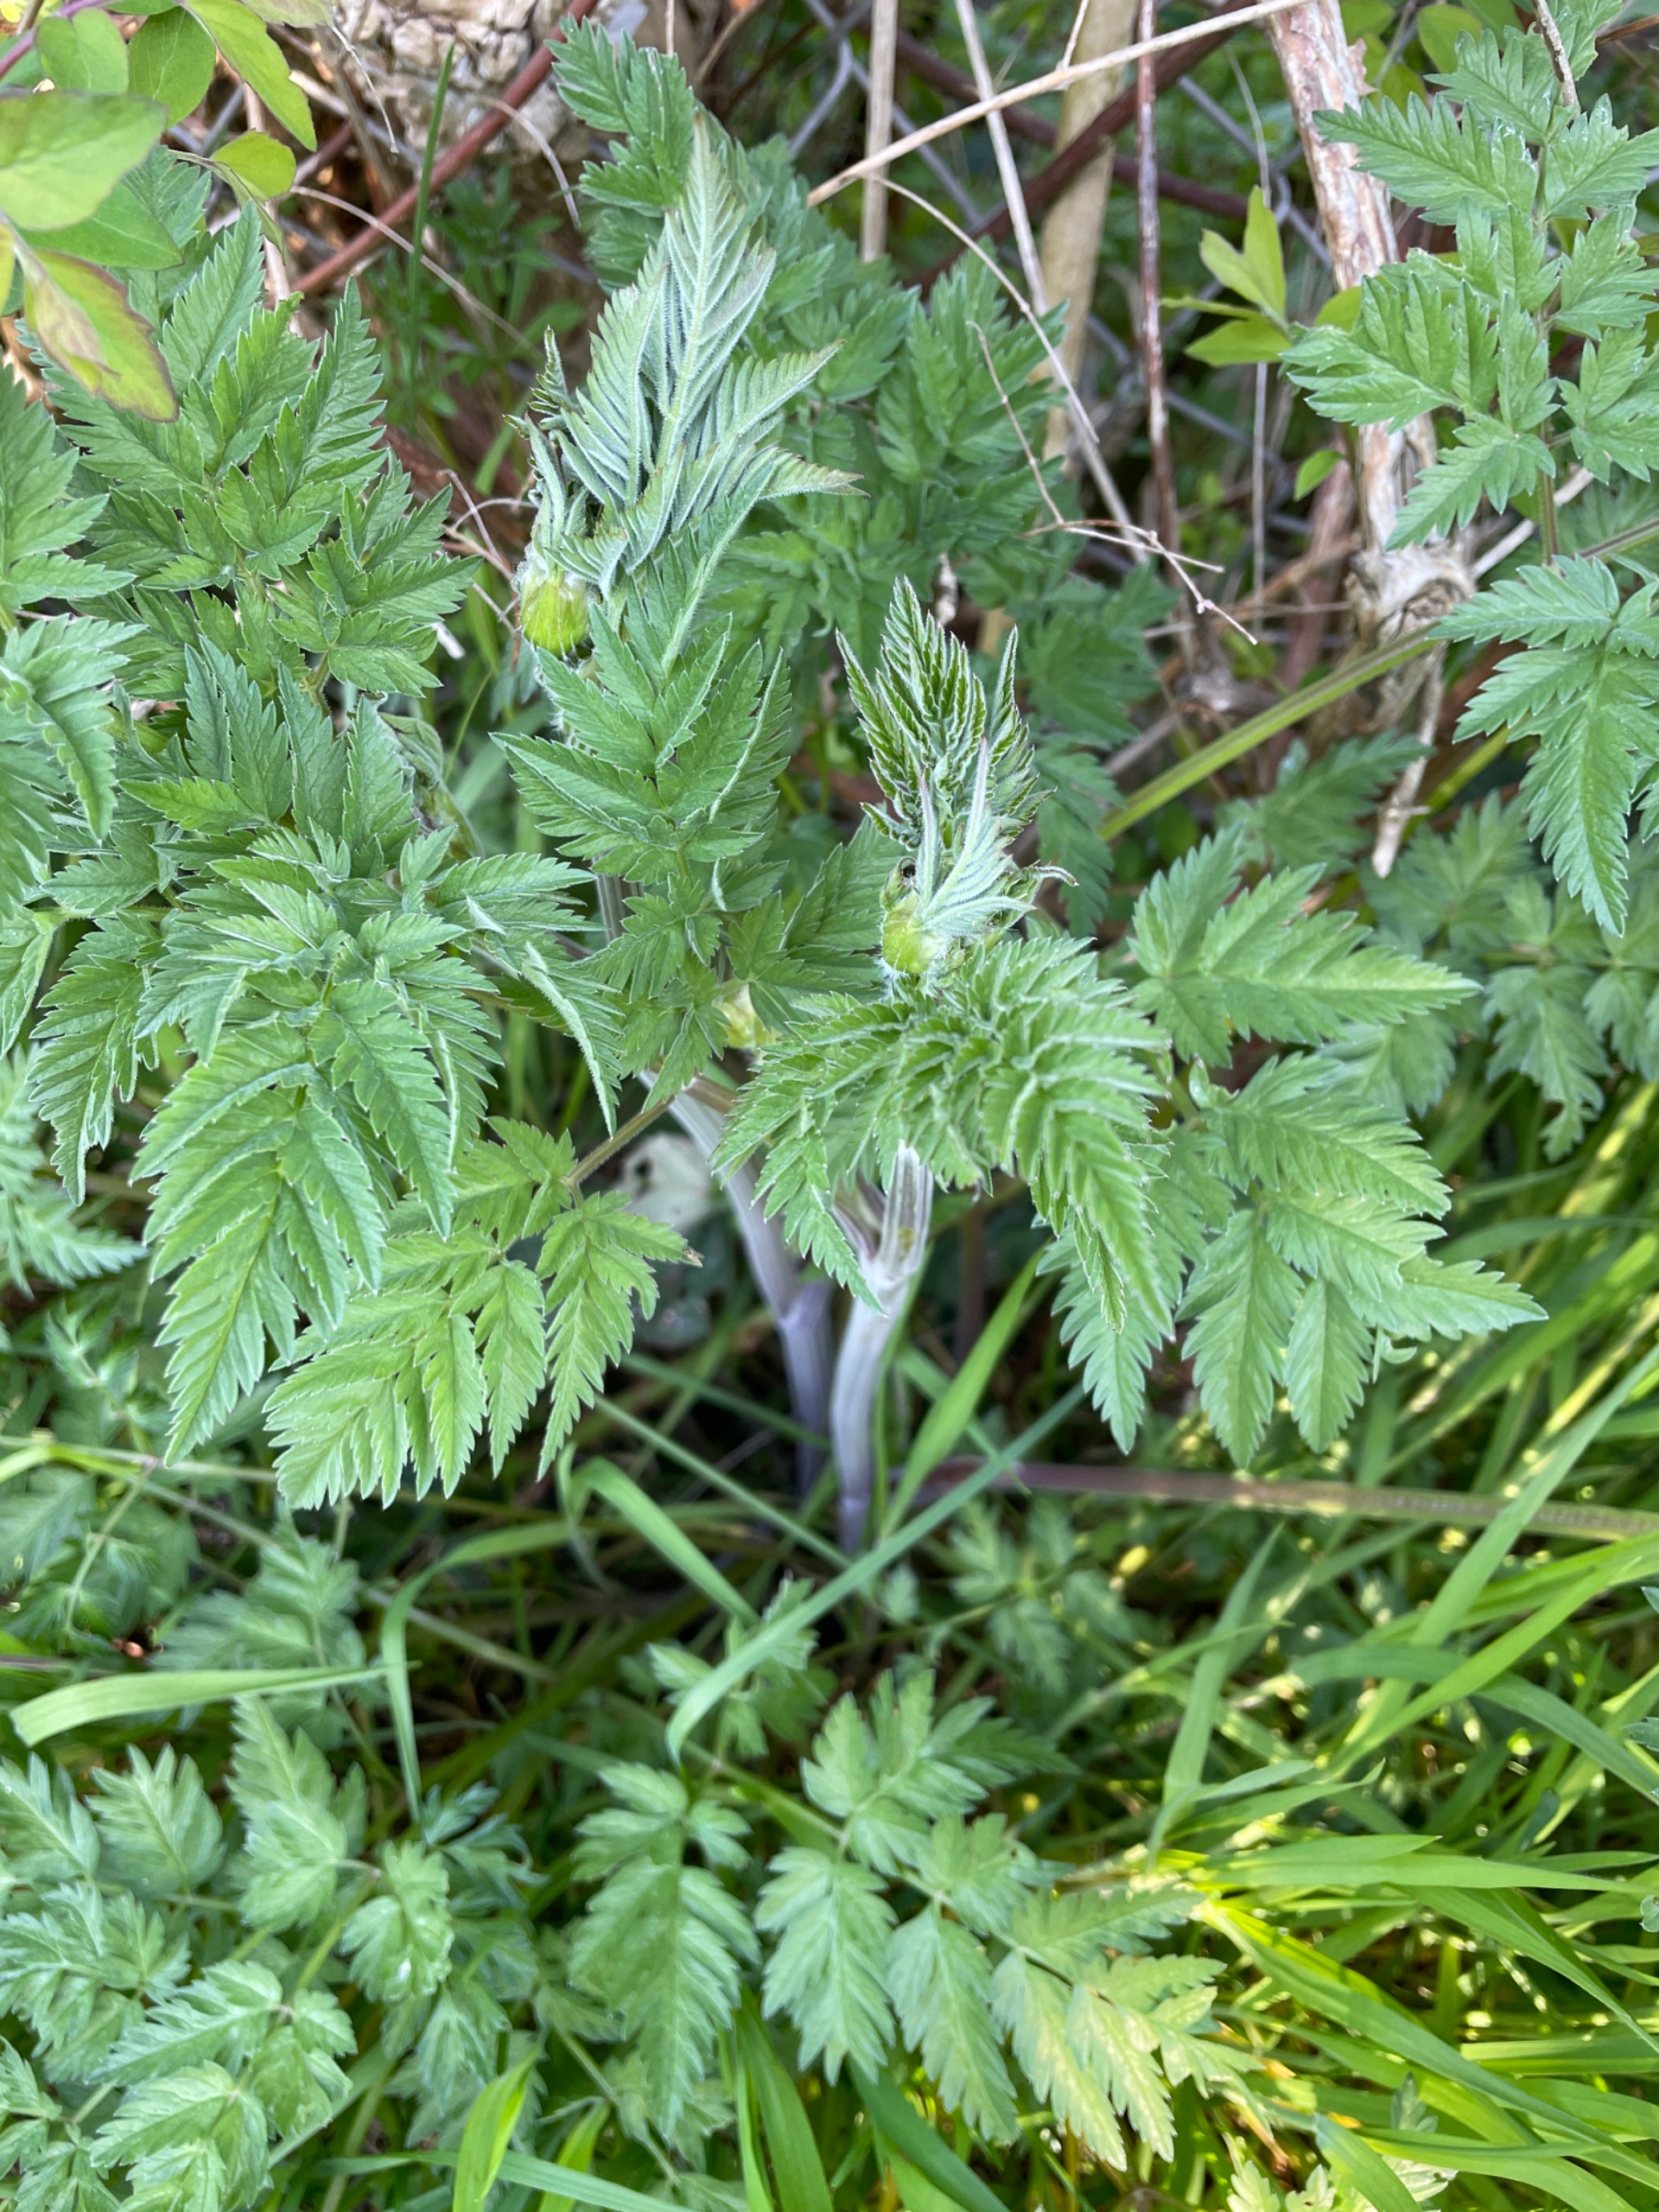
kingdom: Plantae
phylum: Tracheophyta
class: Magnoliopsida
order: Apiales
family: Apiaceae
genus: Anthriscus
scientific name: Anthriscus sylvestris
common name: Vild kørvel
